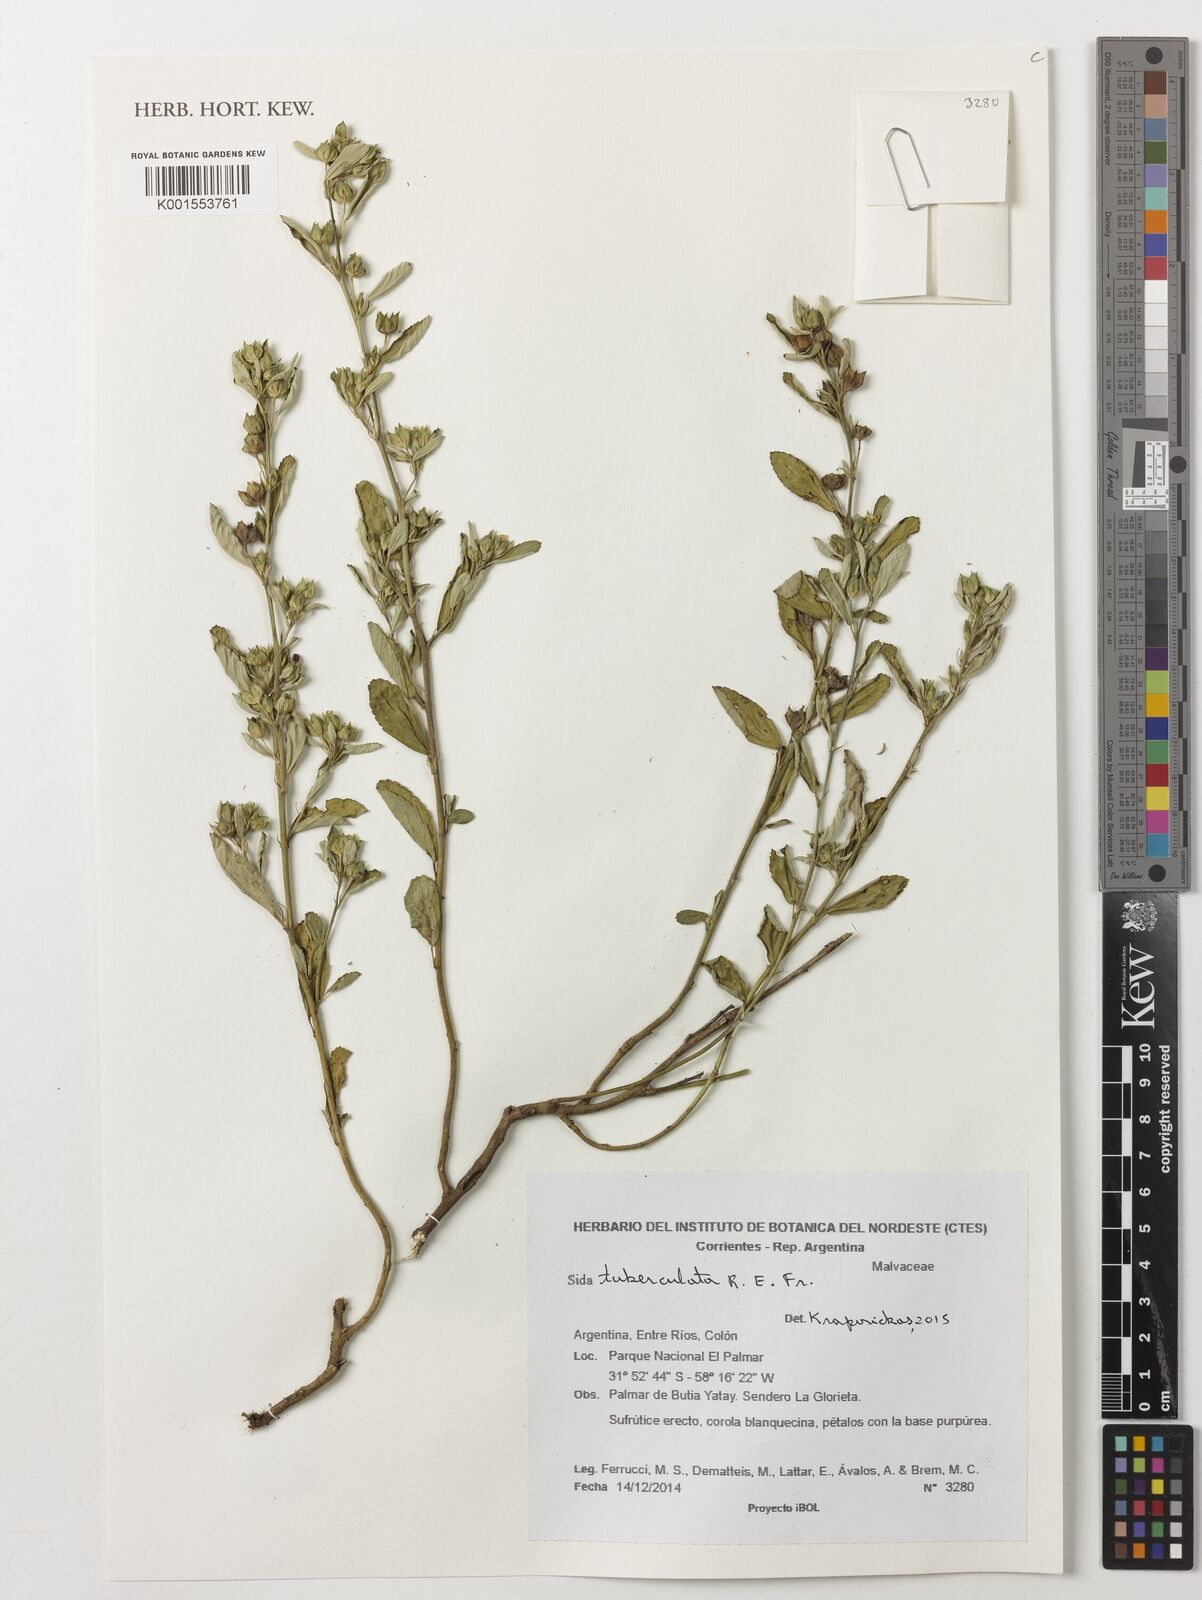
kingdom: Plantae
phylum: Tracheophyta
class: Magnoliopsida
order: Malvales
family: Malvaceae
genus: Sida
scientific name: Sida tuberculata
